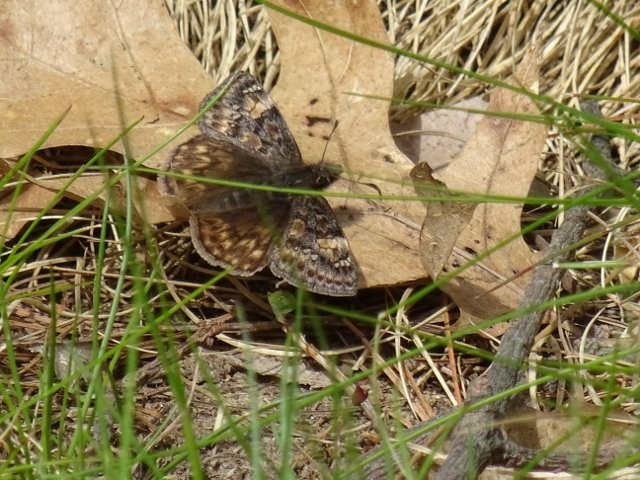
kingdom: Animalia
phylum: Arthropoda
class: Insecta
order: Lepidoptera
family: Hesperiidae
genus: Gesta
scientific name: Gesta
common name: Juvenal's Duskywing
